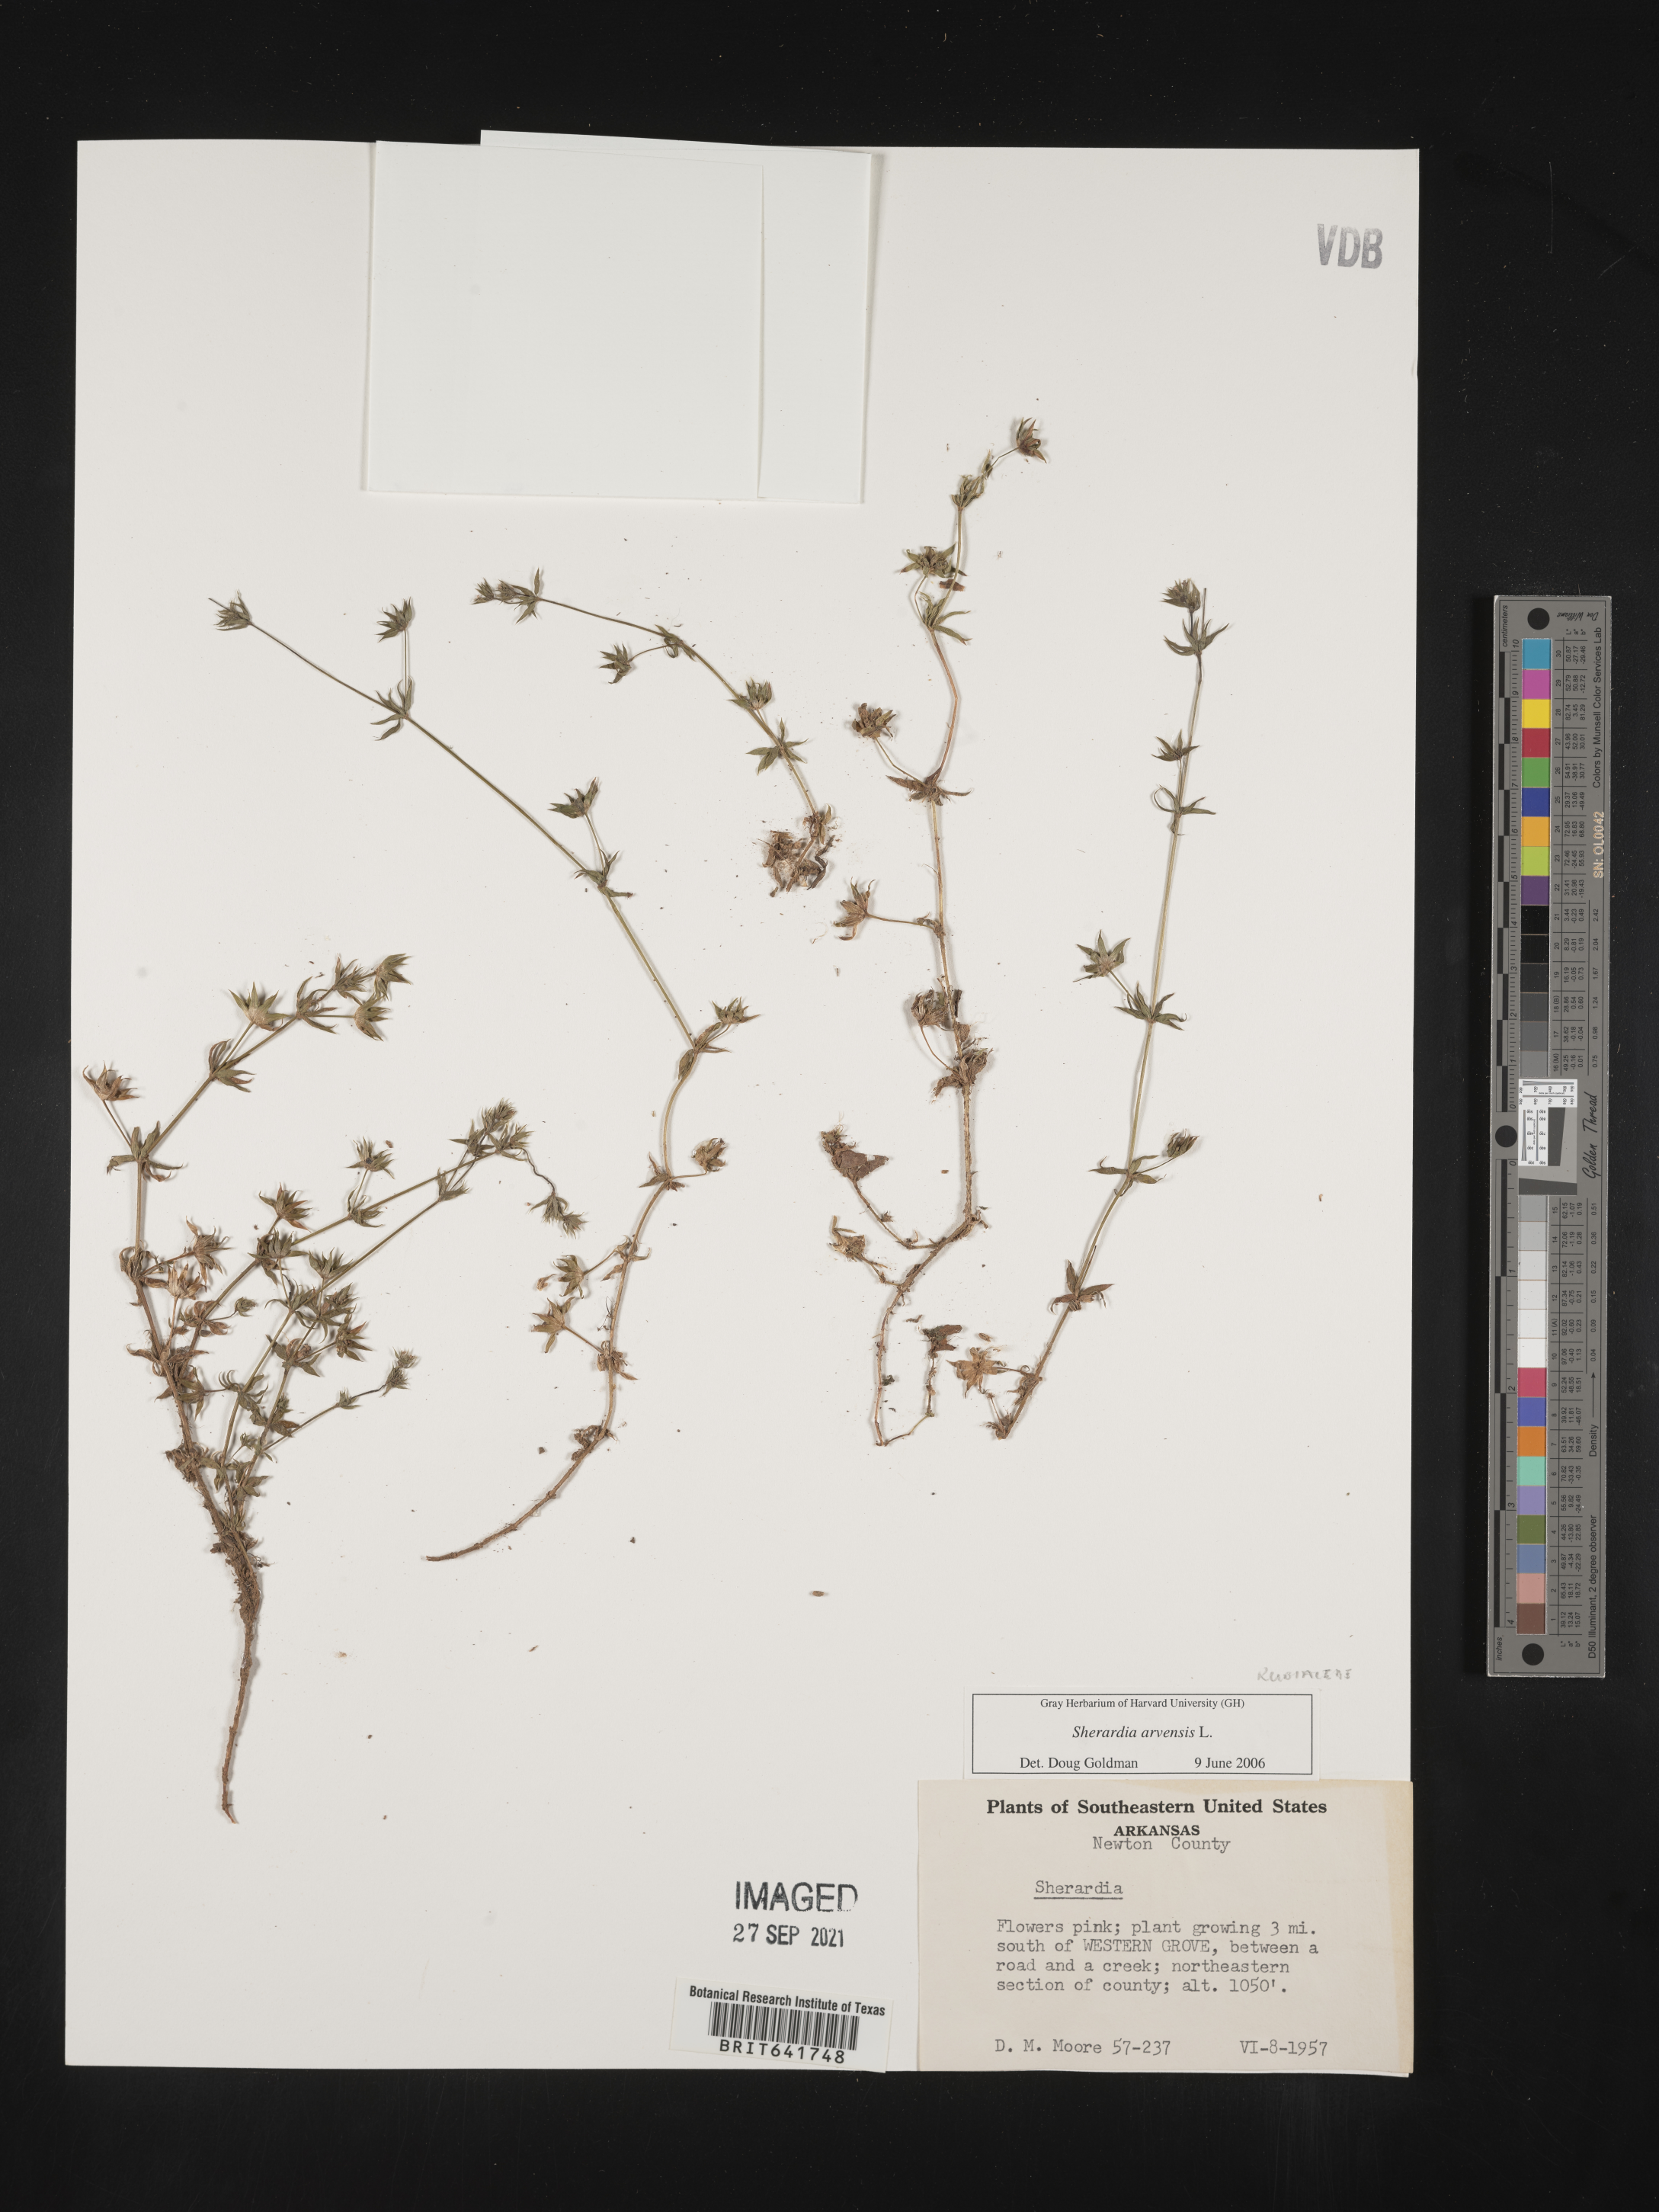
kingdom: Plantae
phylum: Tracheophyta
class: Magnoliopsida
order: Gentianales
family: Rubiaceae
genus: Sherardia
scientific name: Sherardia arvensis
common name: Field madder
